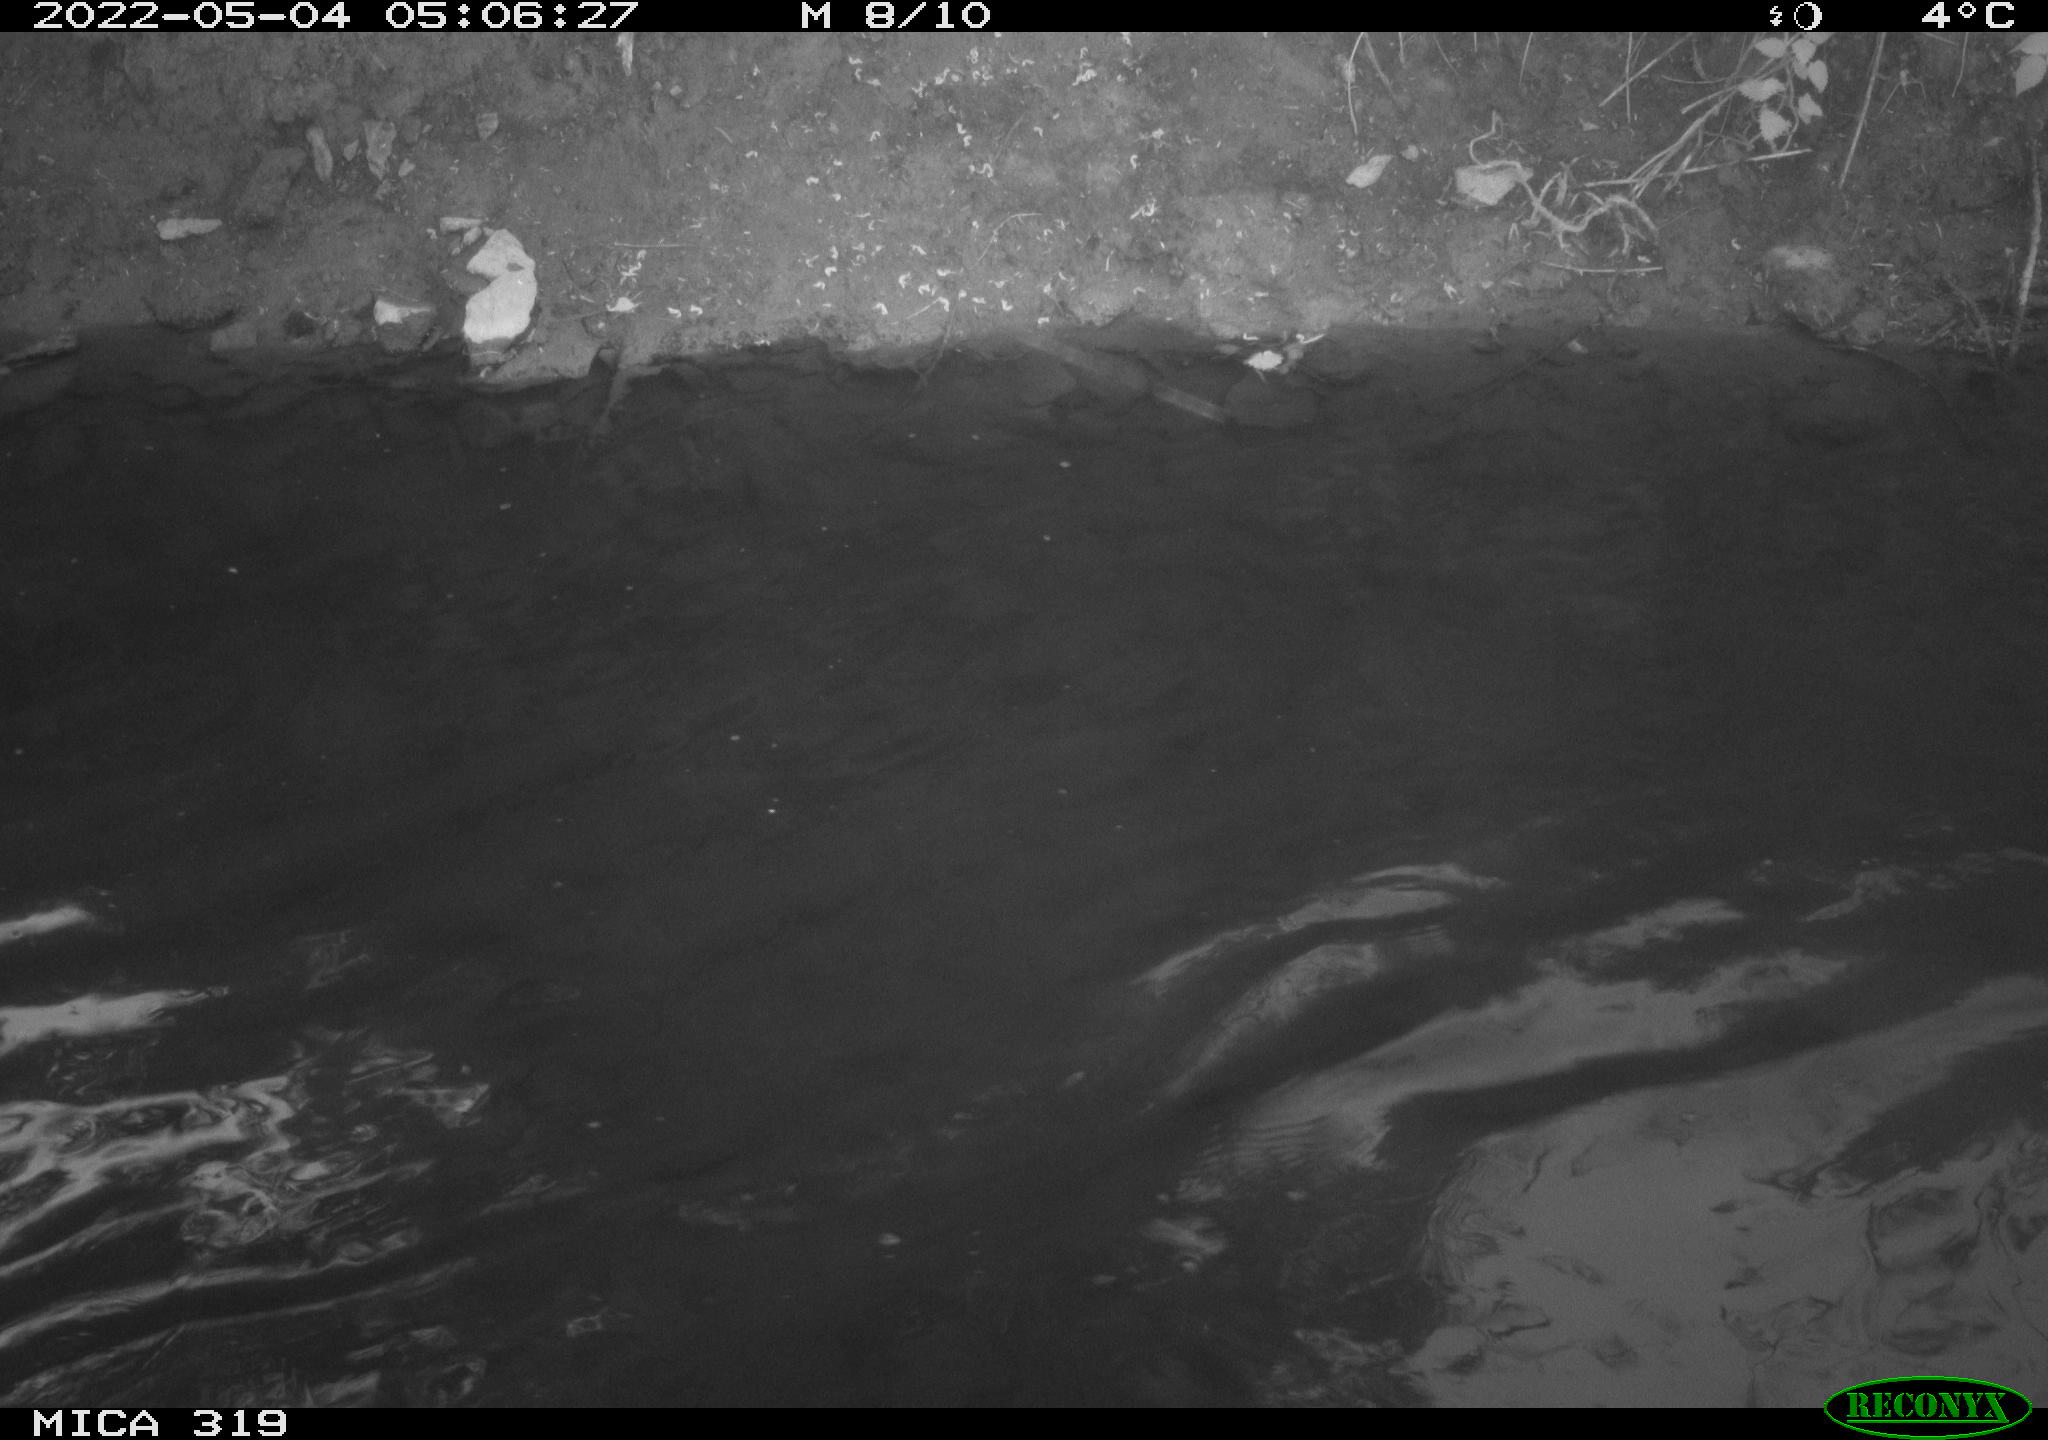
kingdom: Animalia
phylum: Chordata
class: Aves
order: Anseriformes
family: Anatidae
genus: Anas
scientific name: Anas platyrhynchos
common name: Mallard
